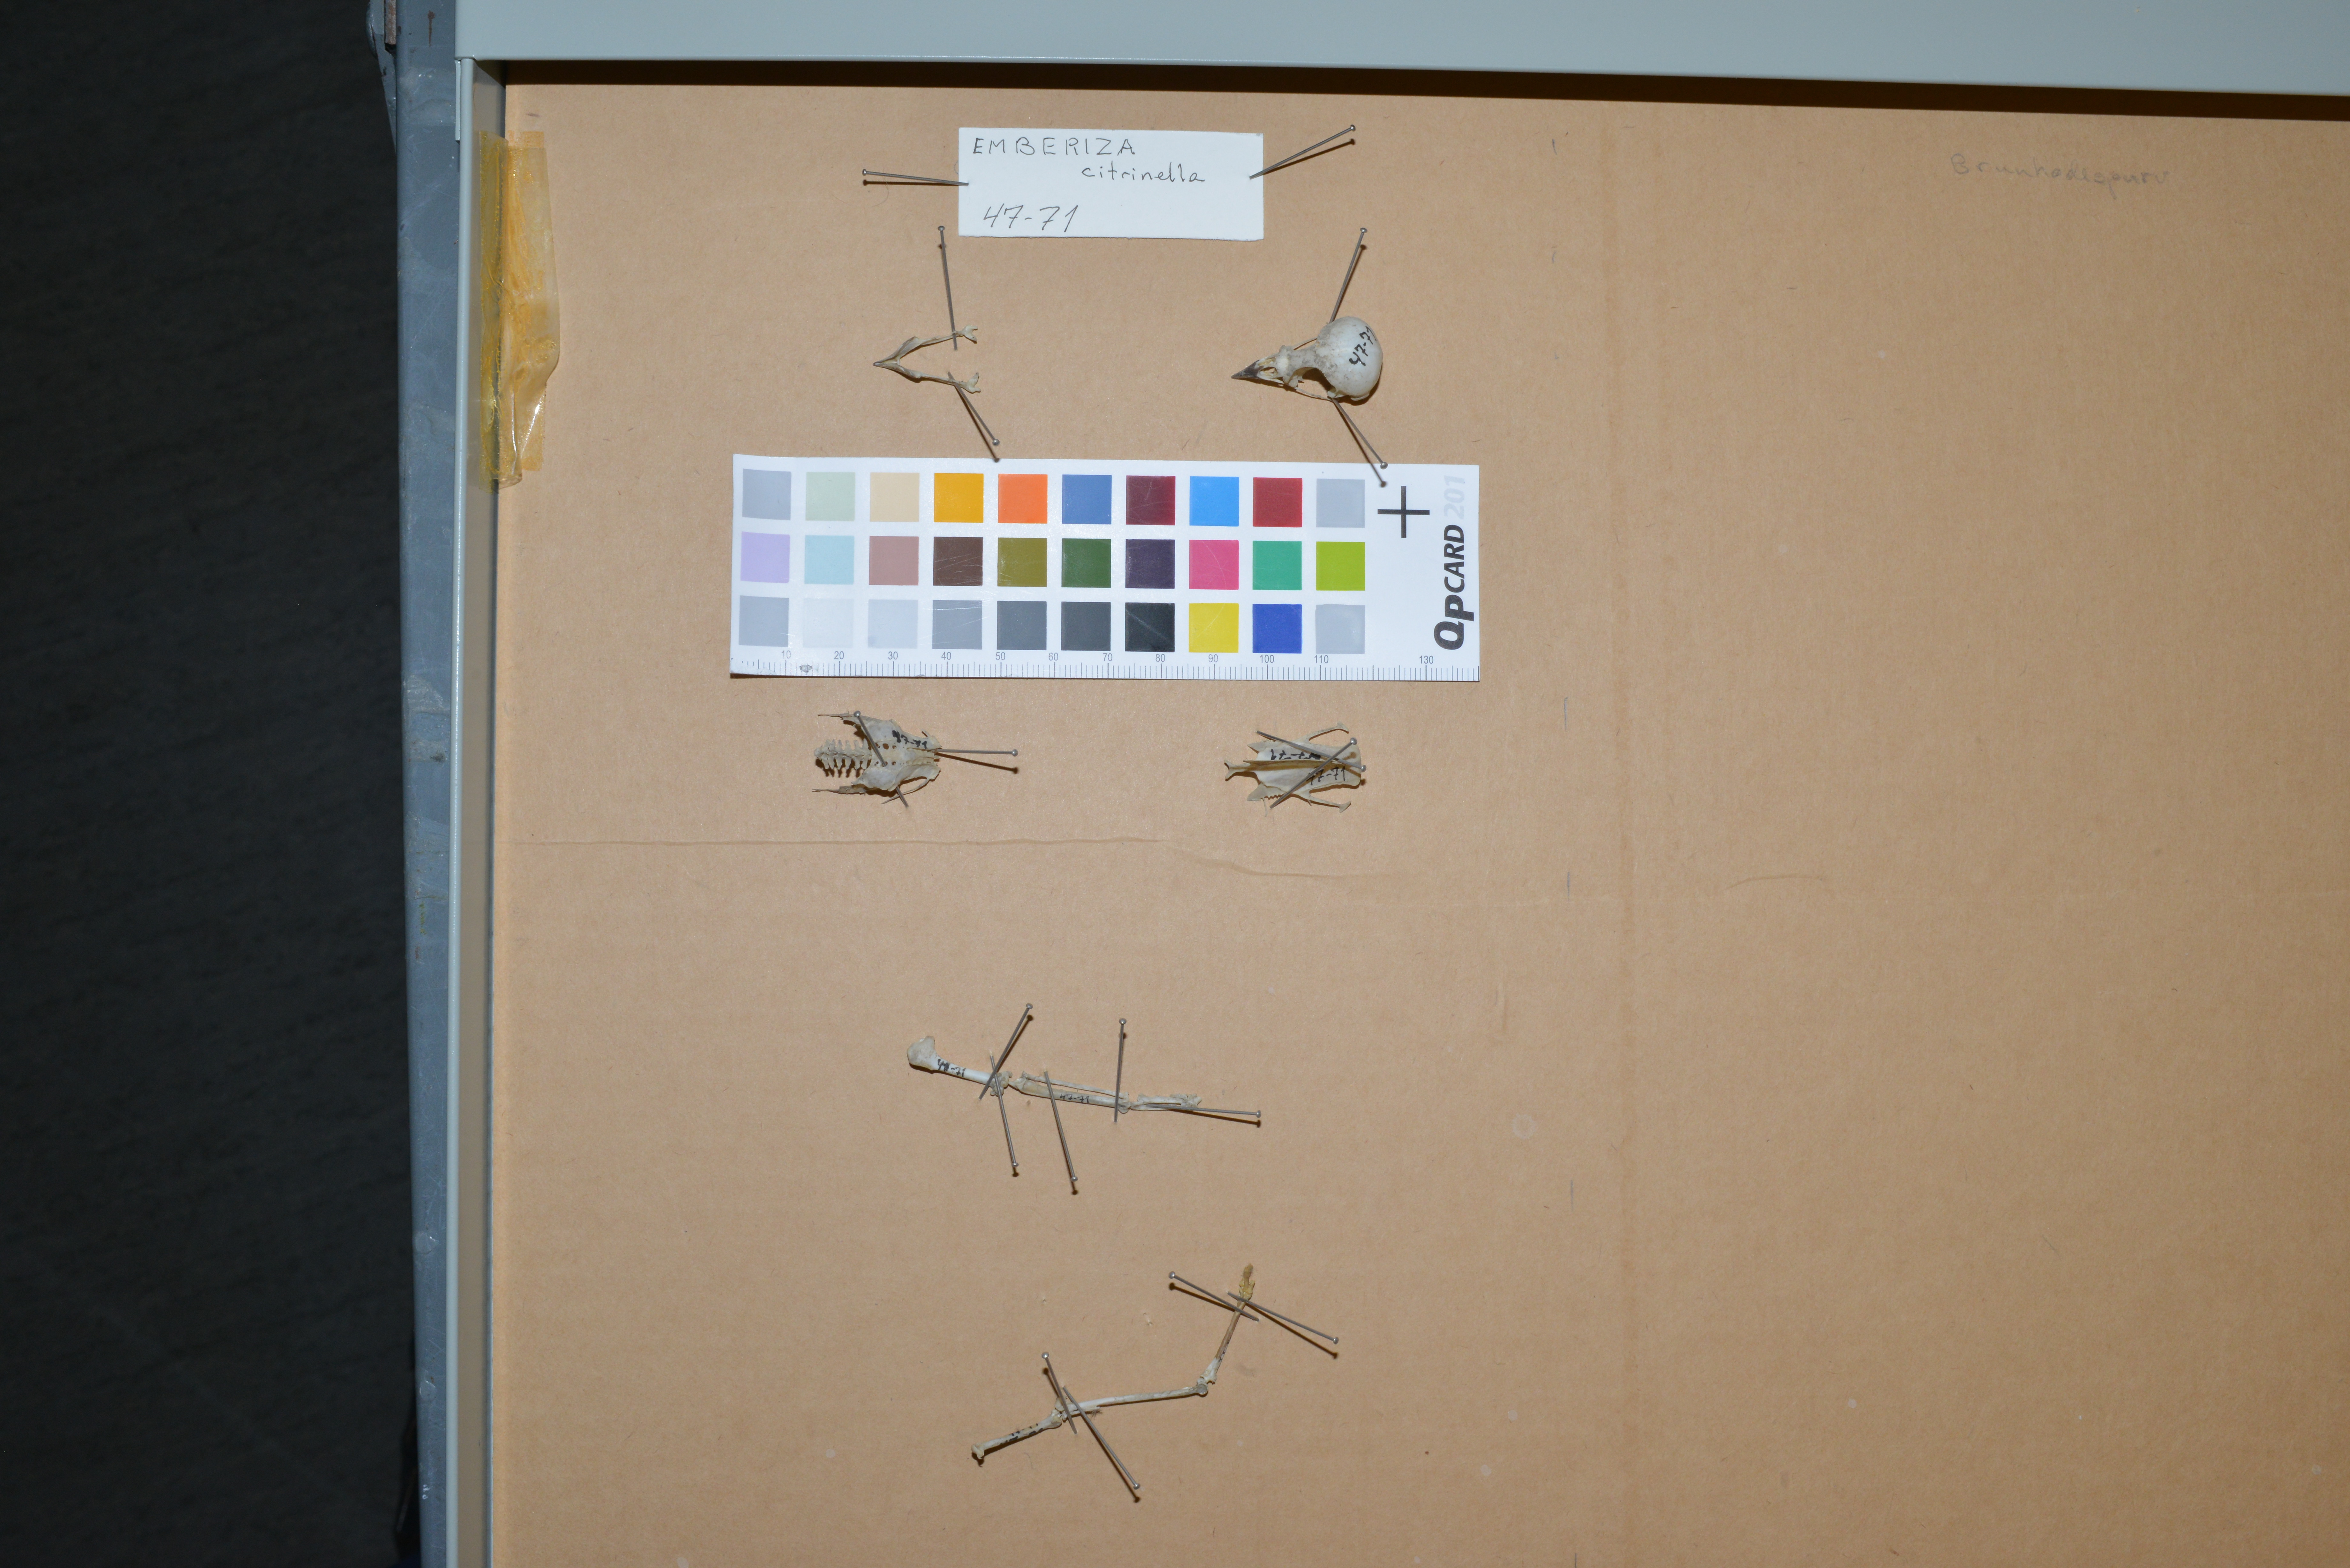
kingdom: Animalia
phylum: Chordata
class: Aves
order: Passeriformes
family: Emberizidae
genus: Emberiza
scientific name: Emberiza citrinella
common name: Yellowhammer
